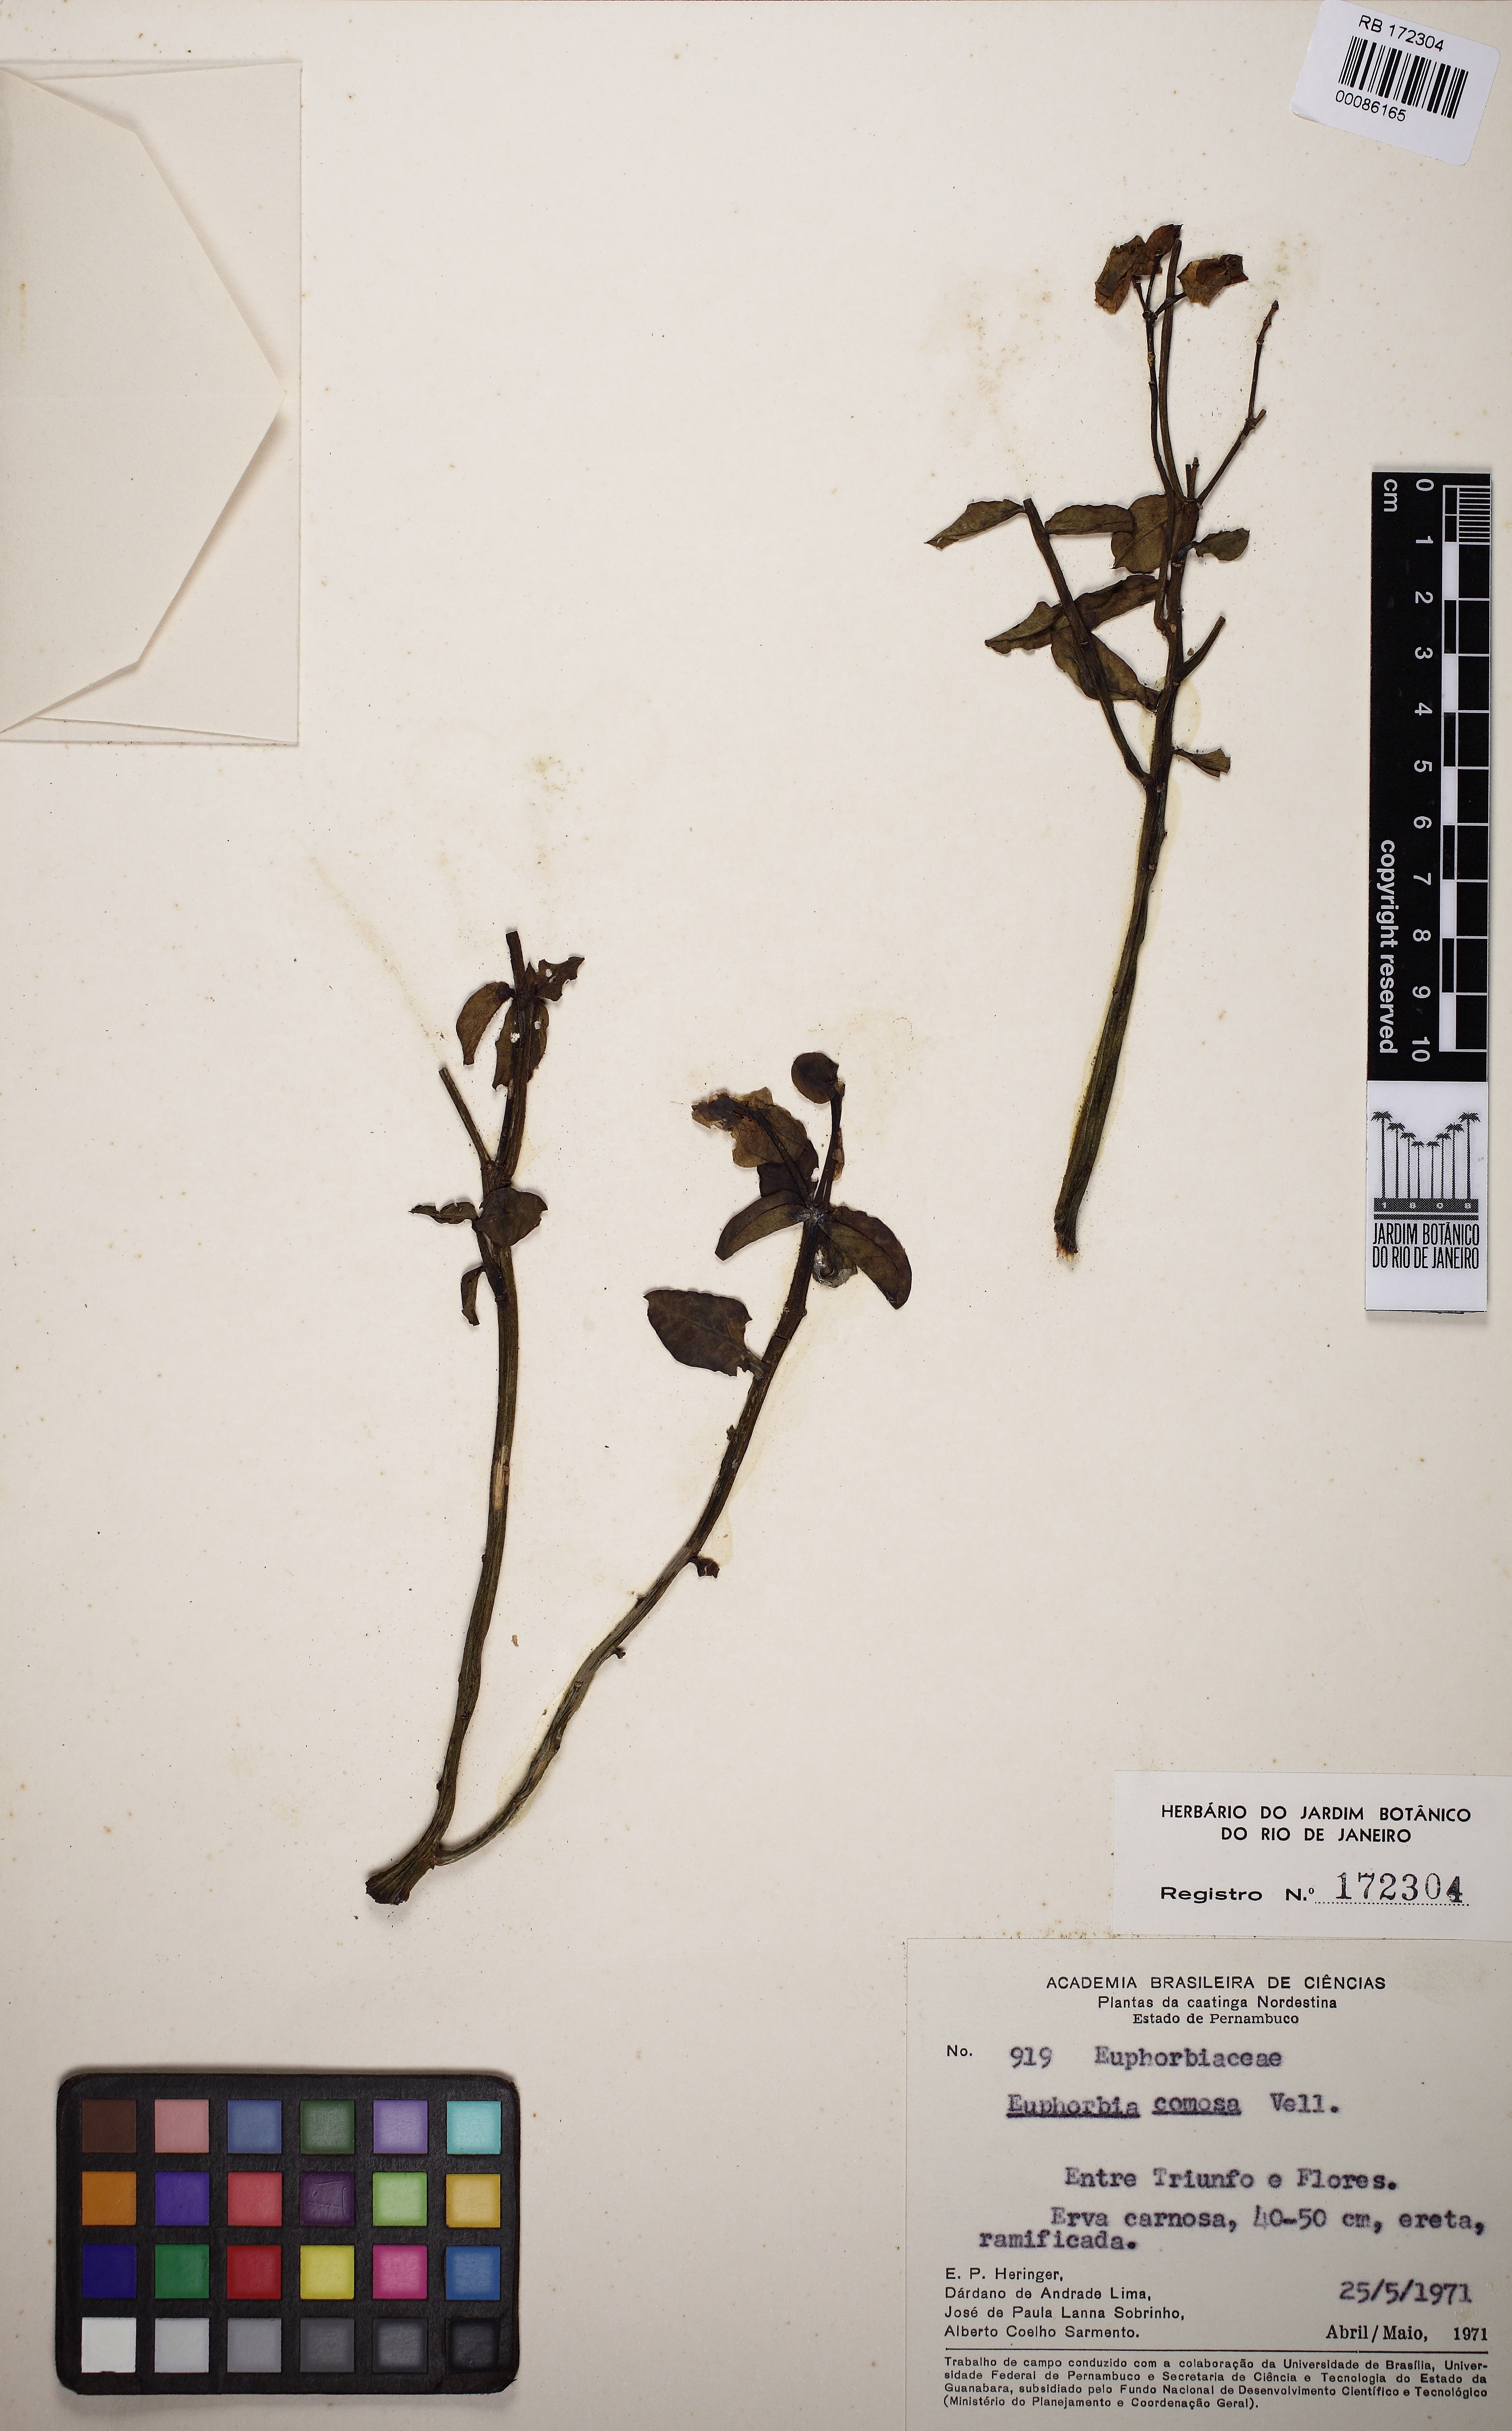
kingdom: Plantae
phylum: Tracheophyta
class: Magnoliopsida
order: Malpighiales
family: Euphorbiaceae
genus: Euphorbia
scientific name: Euphorbia comosa
